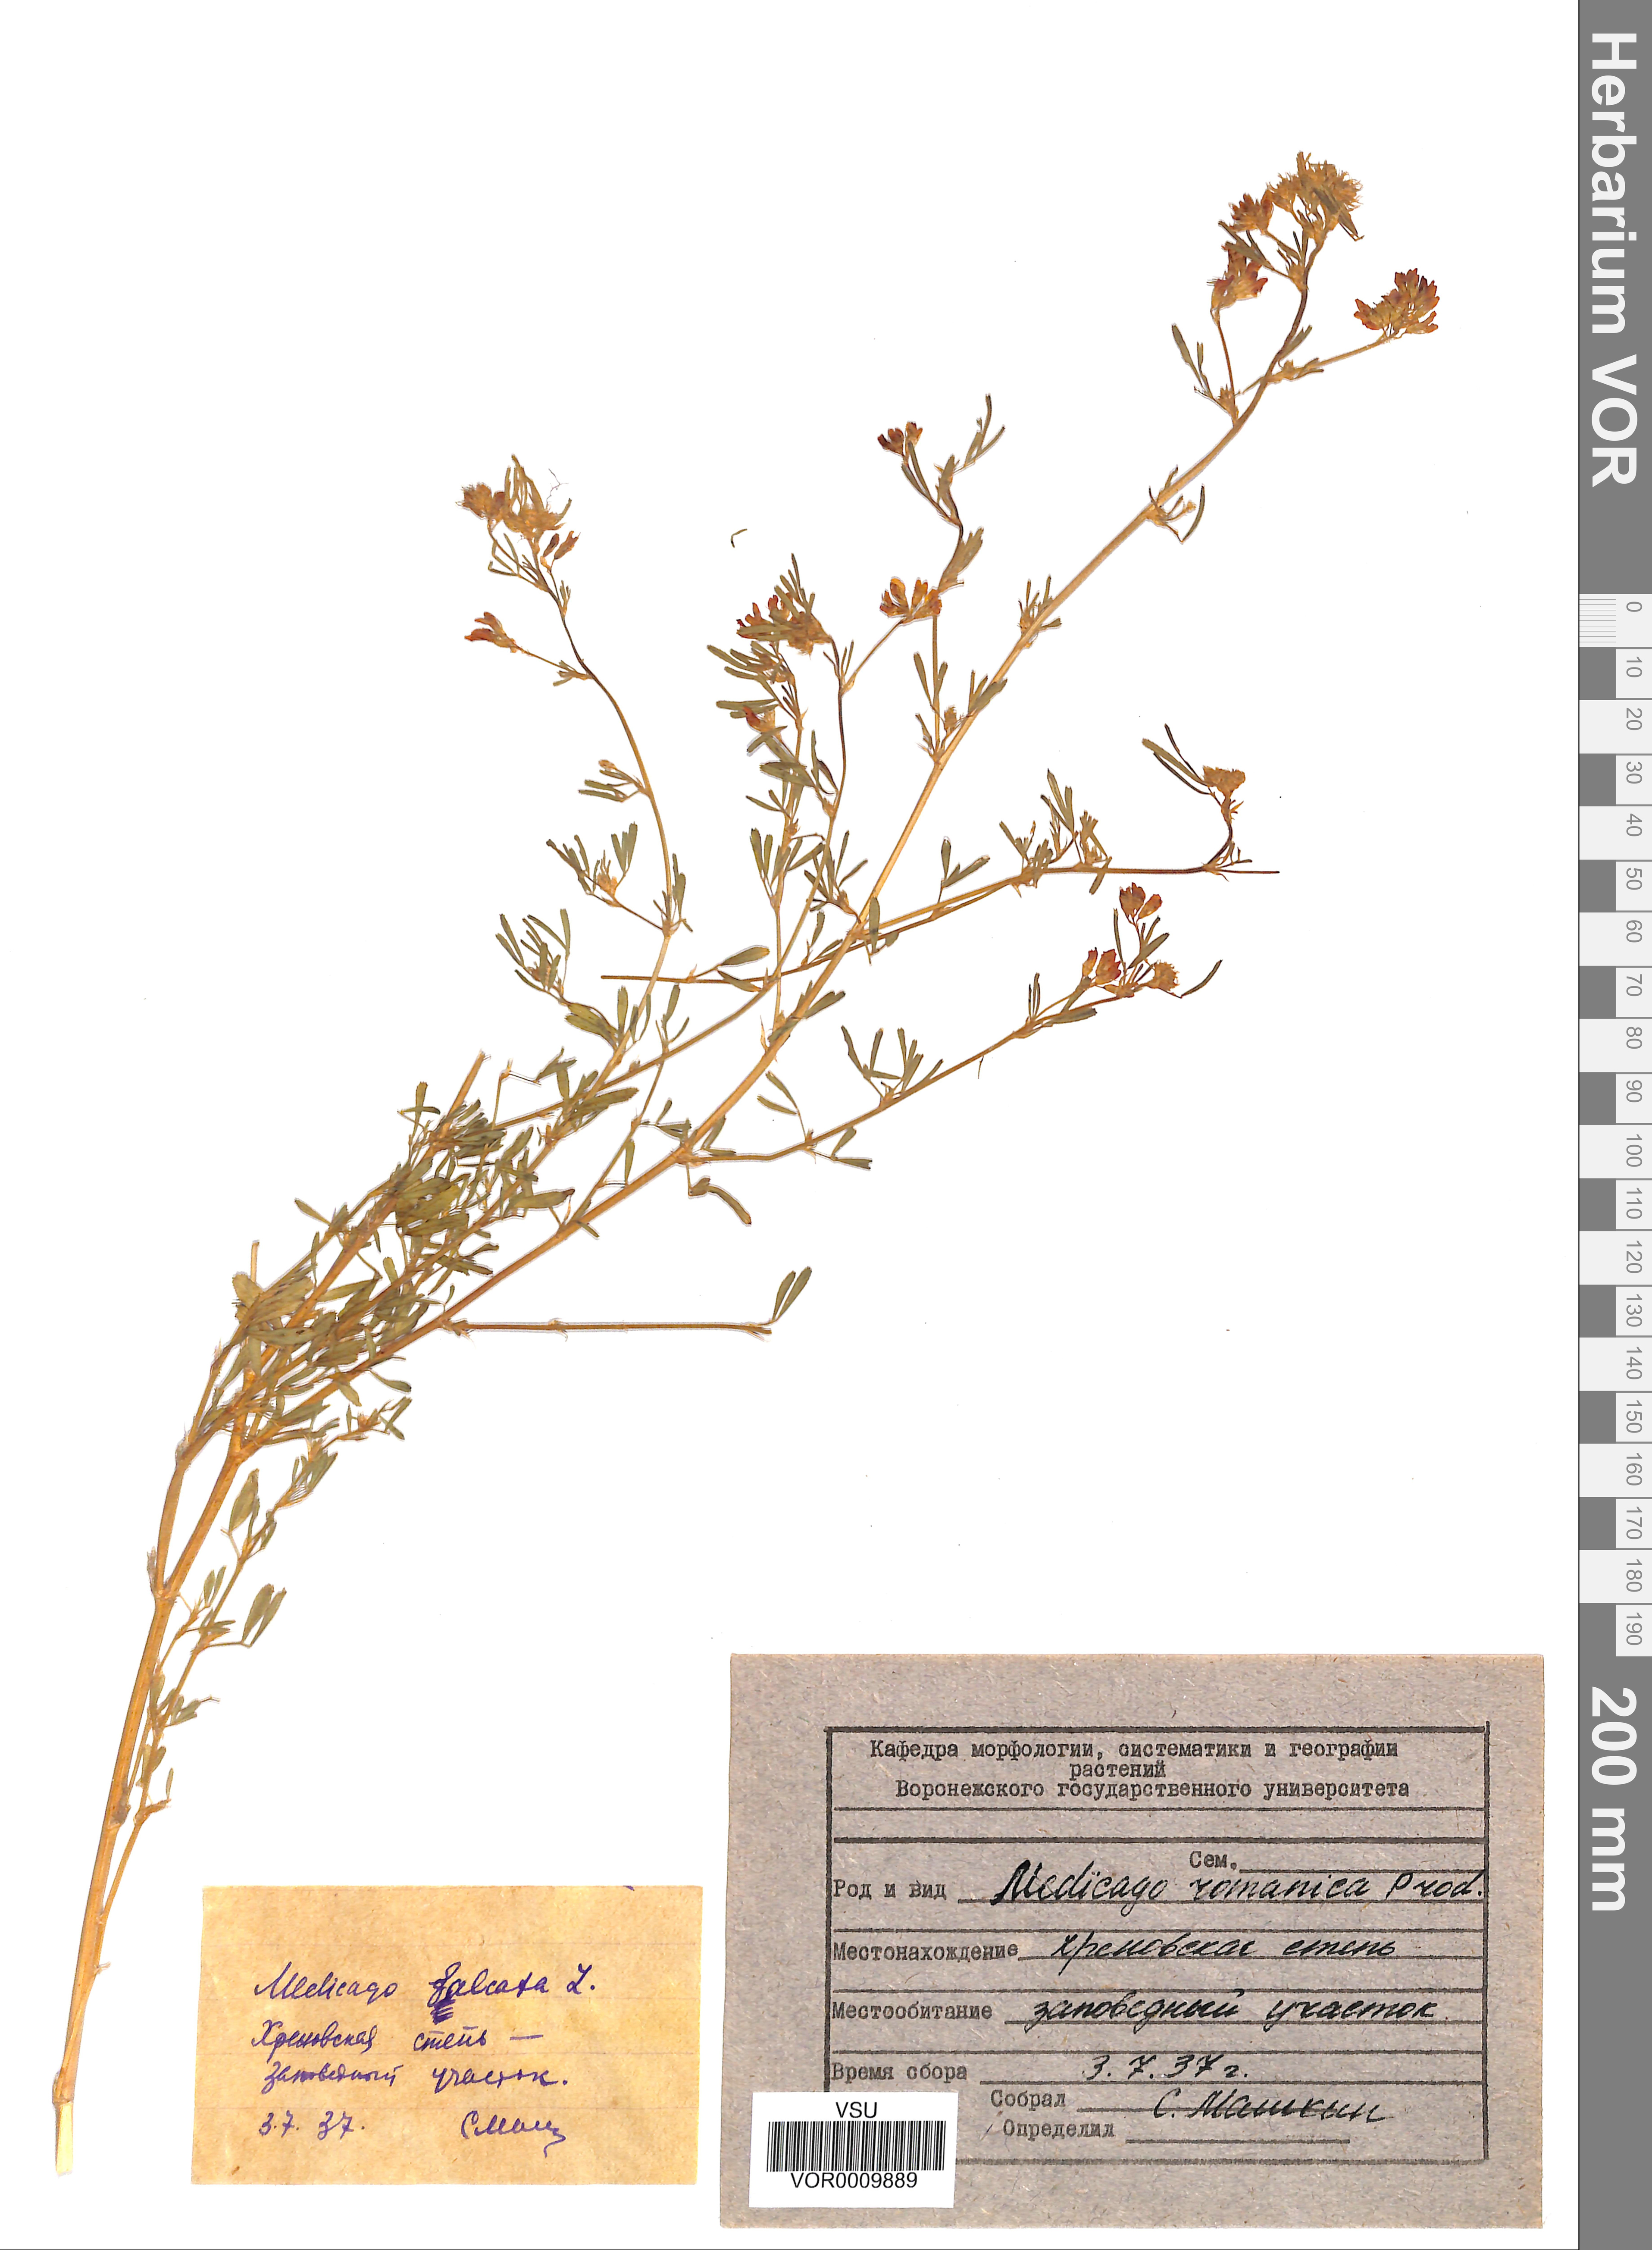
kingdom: Plantae
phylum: Tracheophyta
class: Magnoliopsida
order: Fabales
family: Fabaceae
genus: Medicago
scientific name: Medicago falcata
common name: Sickle medick
